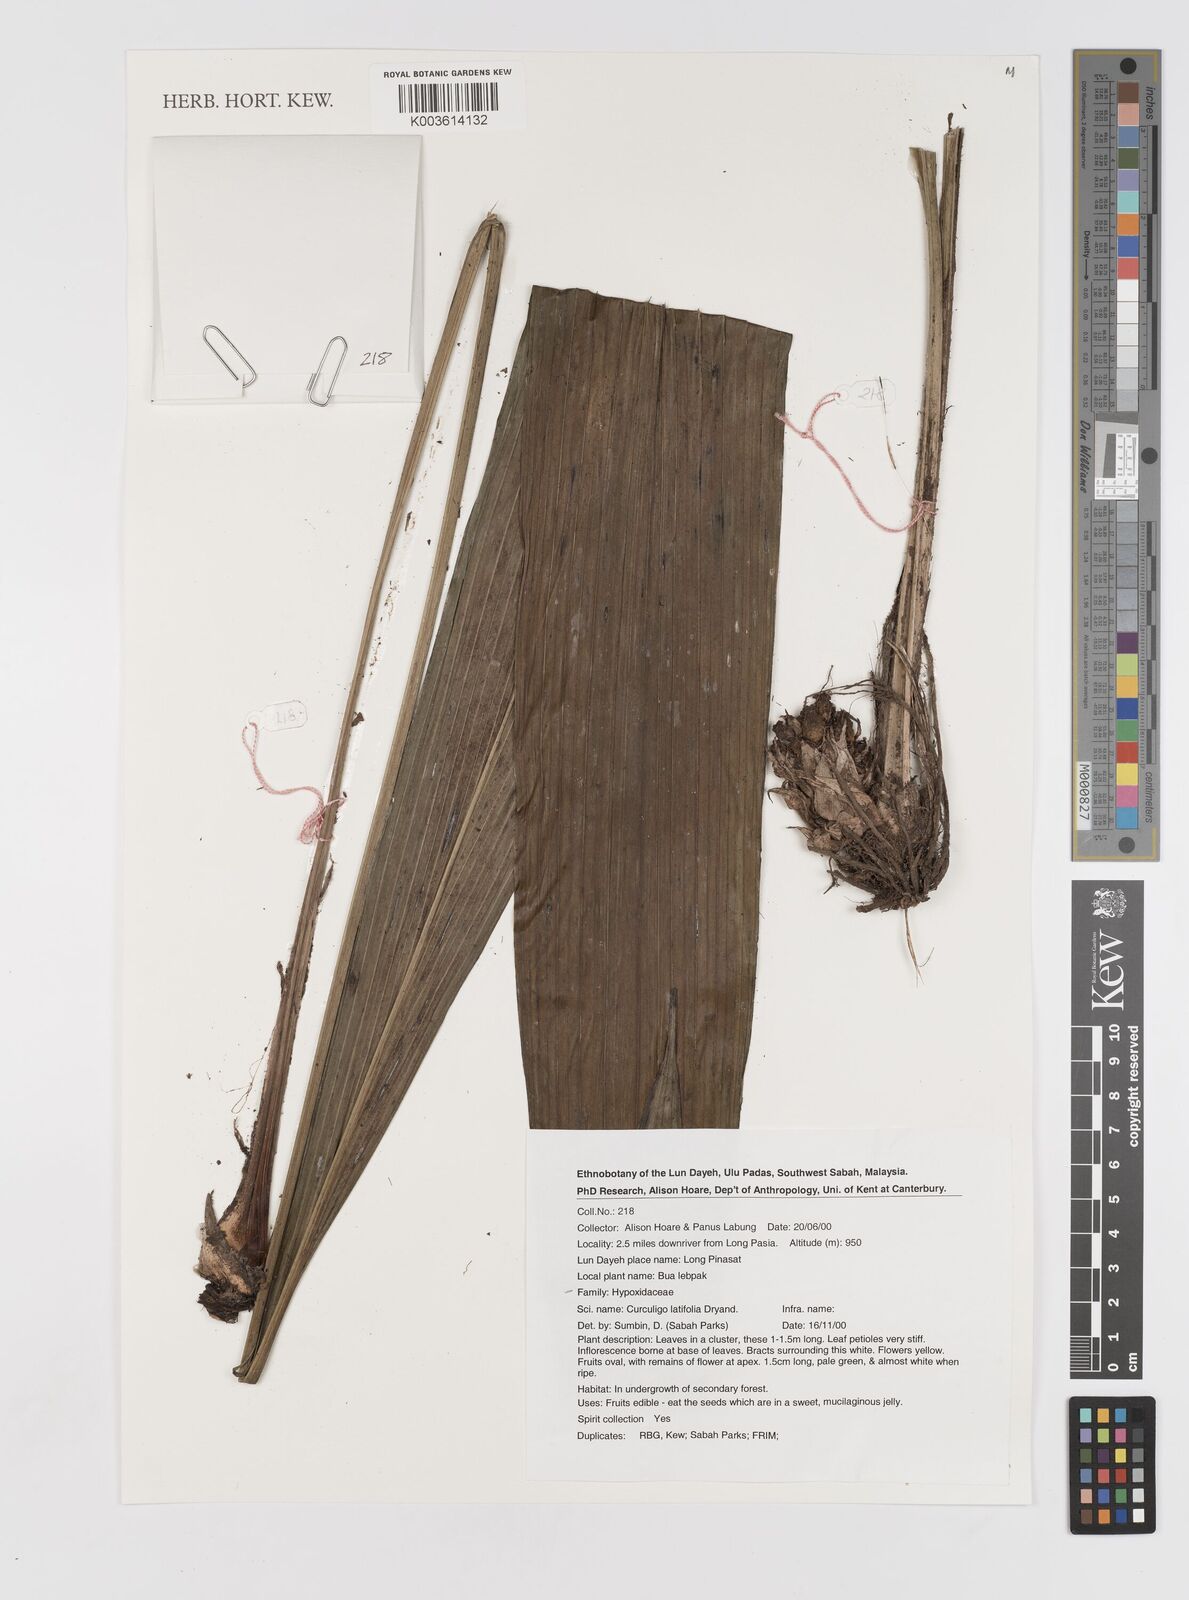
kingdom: Plantae
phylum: Tracheophyta
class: Liliopsida
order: Asparagales
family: Hypoxidaceae
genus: Curculigo
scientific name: Curculigo latifolia
